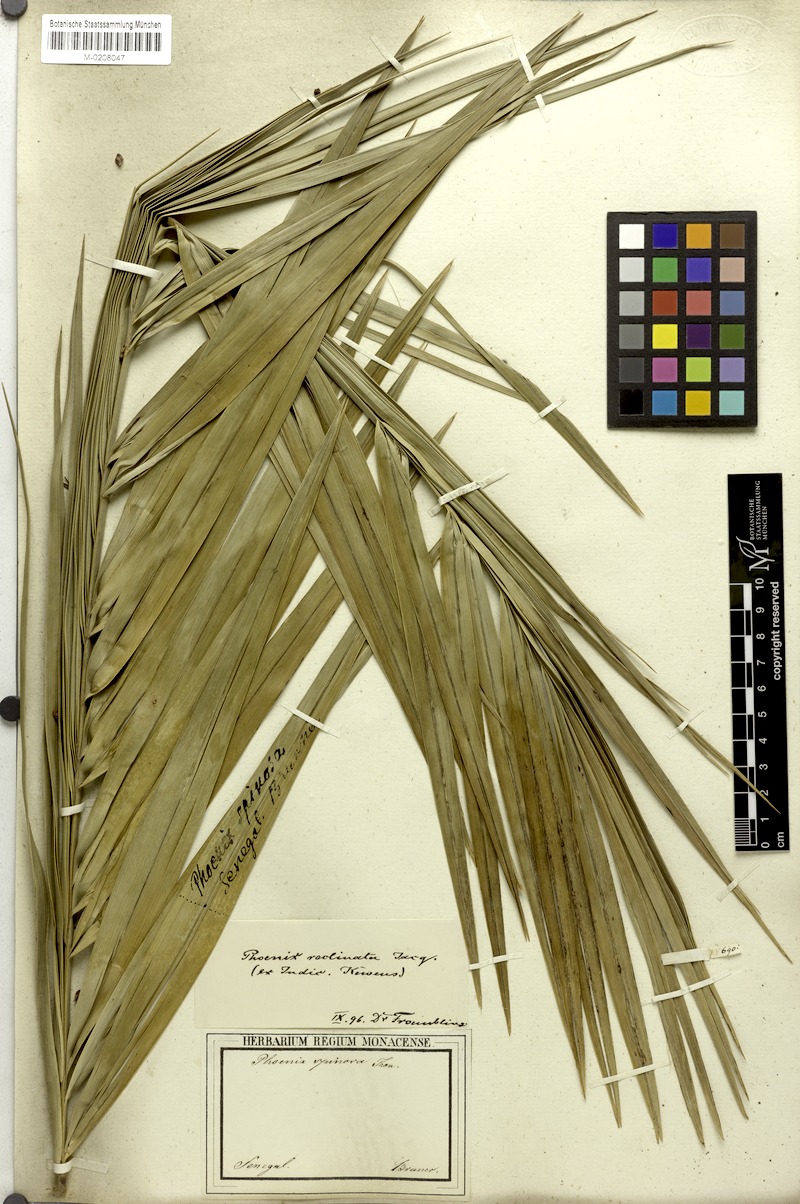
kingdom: Plantae
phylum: Tracheophyta
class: Liliopsida
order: Arecales
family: Arecaceae
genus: Phoenix
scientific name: Phoenix reclinata
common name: Senegal date palm
